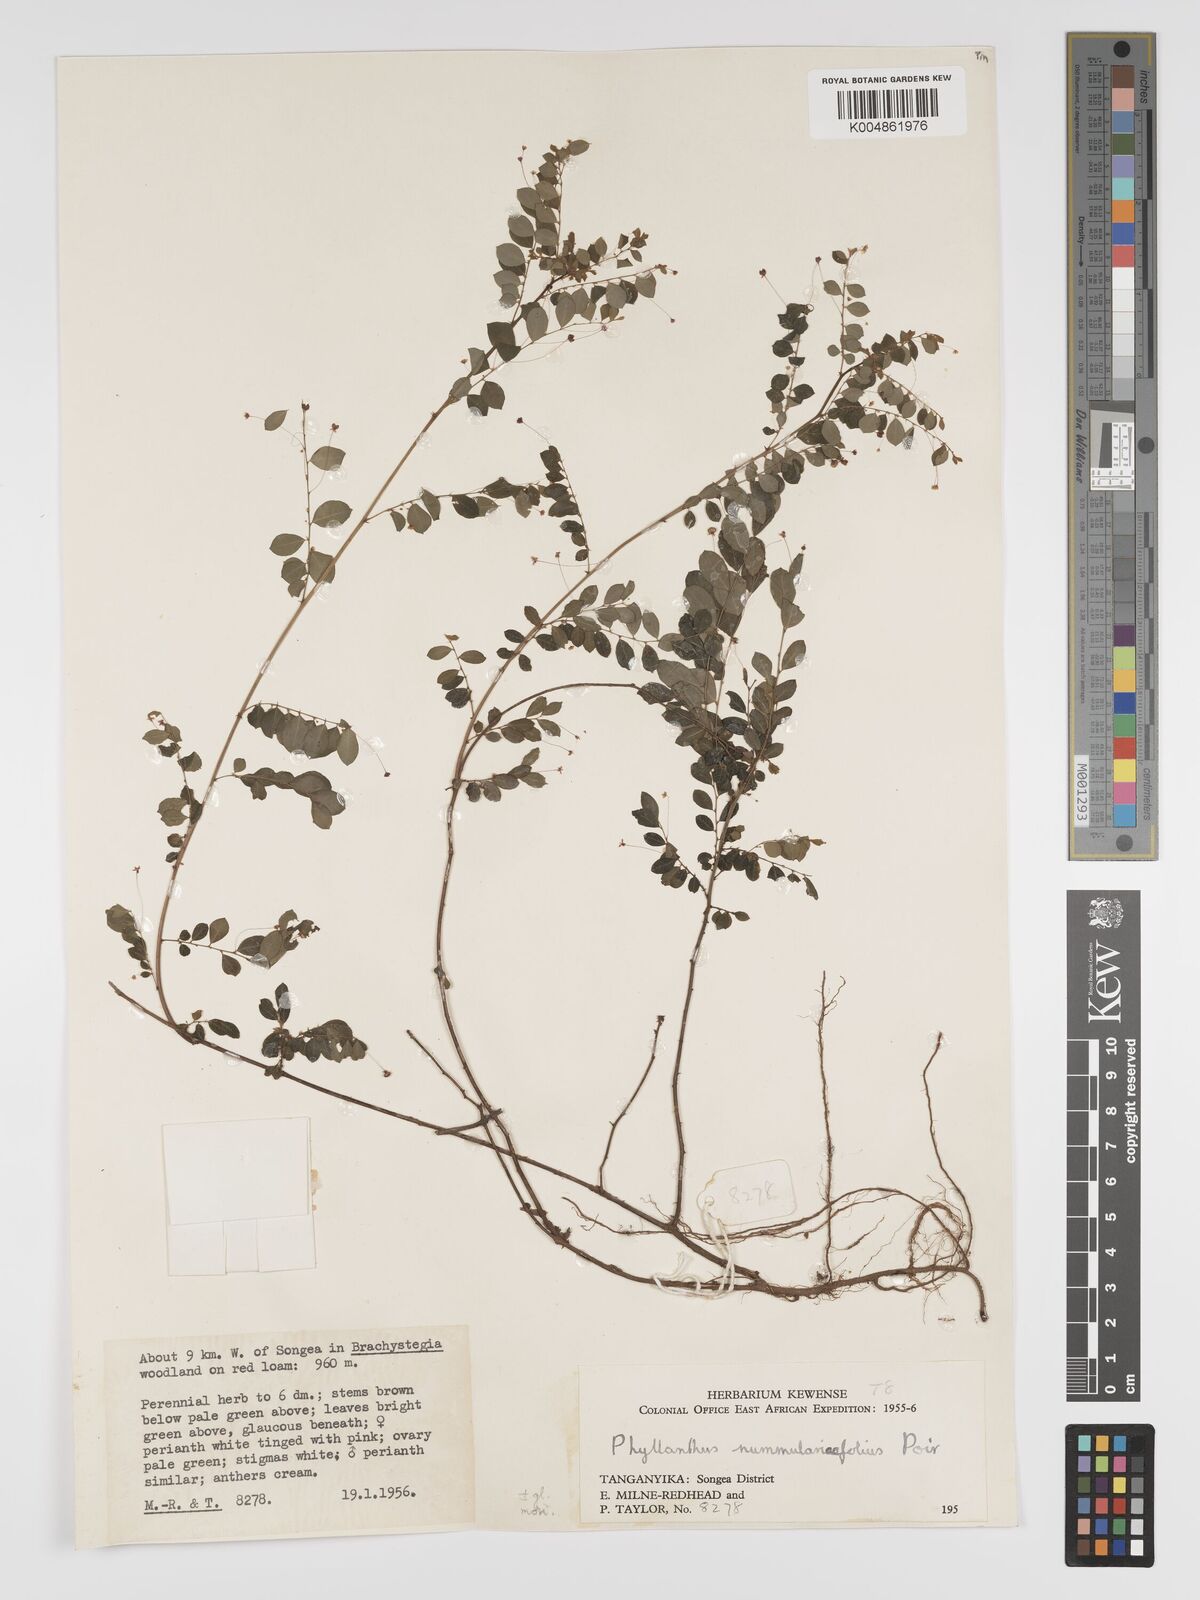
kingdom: Plantae
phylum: Tracheophyta
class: Magnoliopsida
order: Malpighiales
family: Phyllanthaceae
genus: Phyllanthus
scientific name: Phyllanthus nummulariifolius
